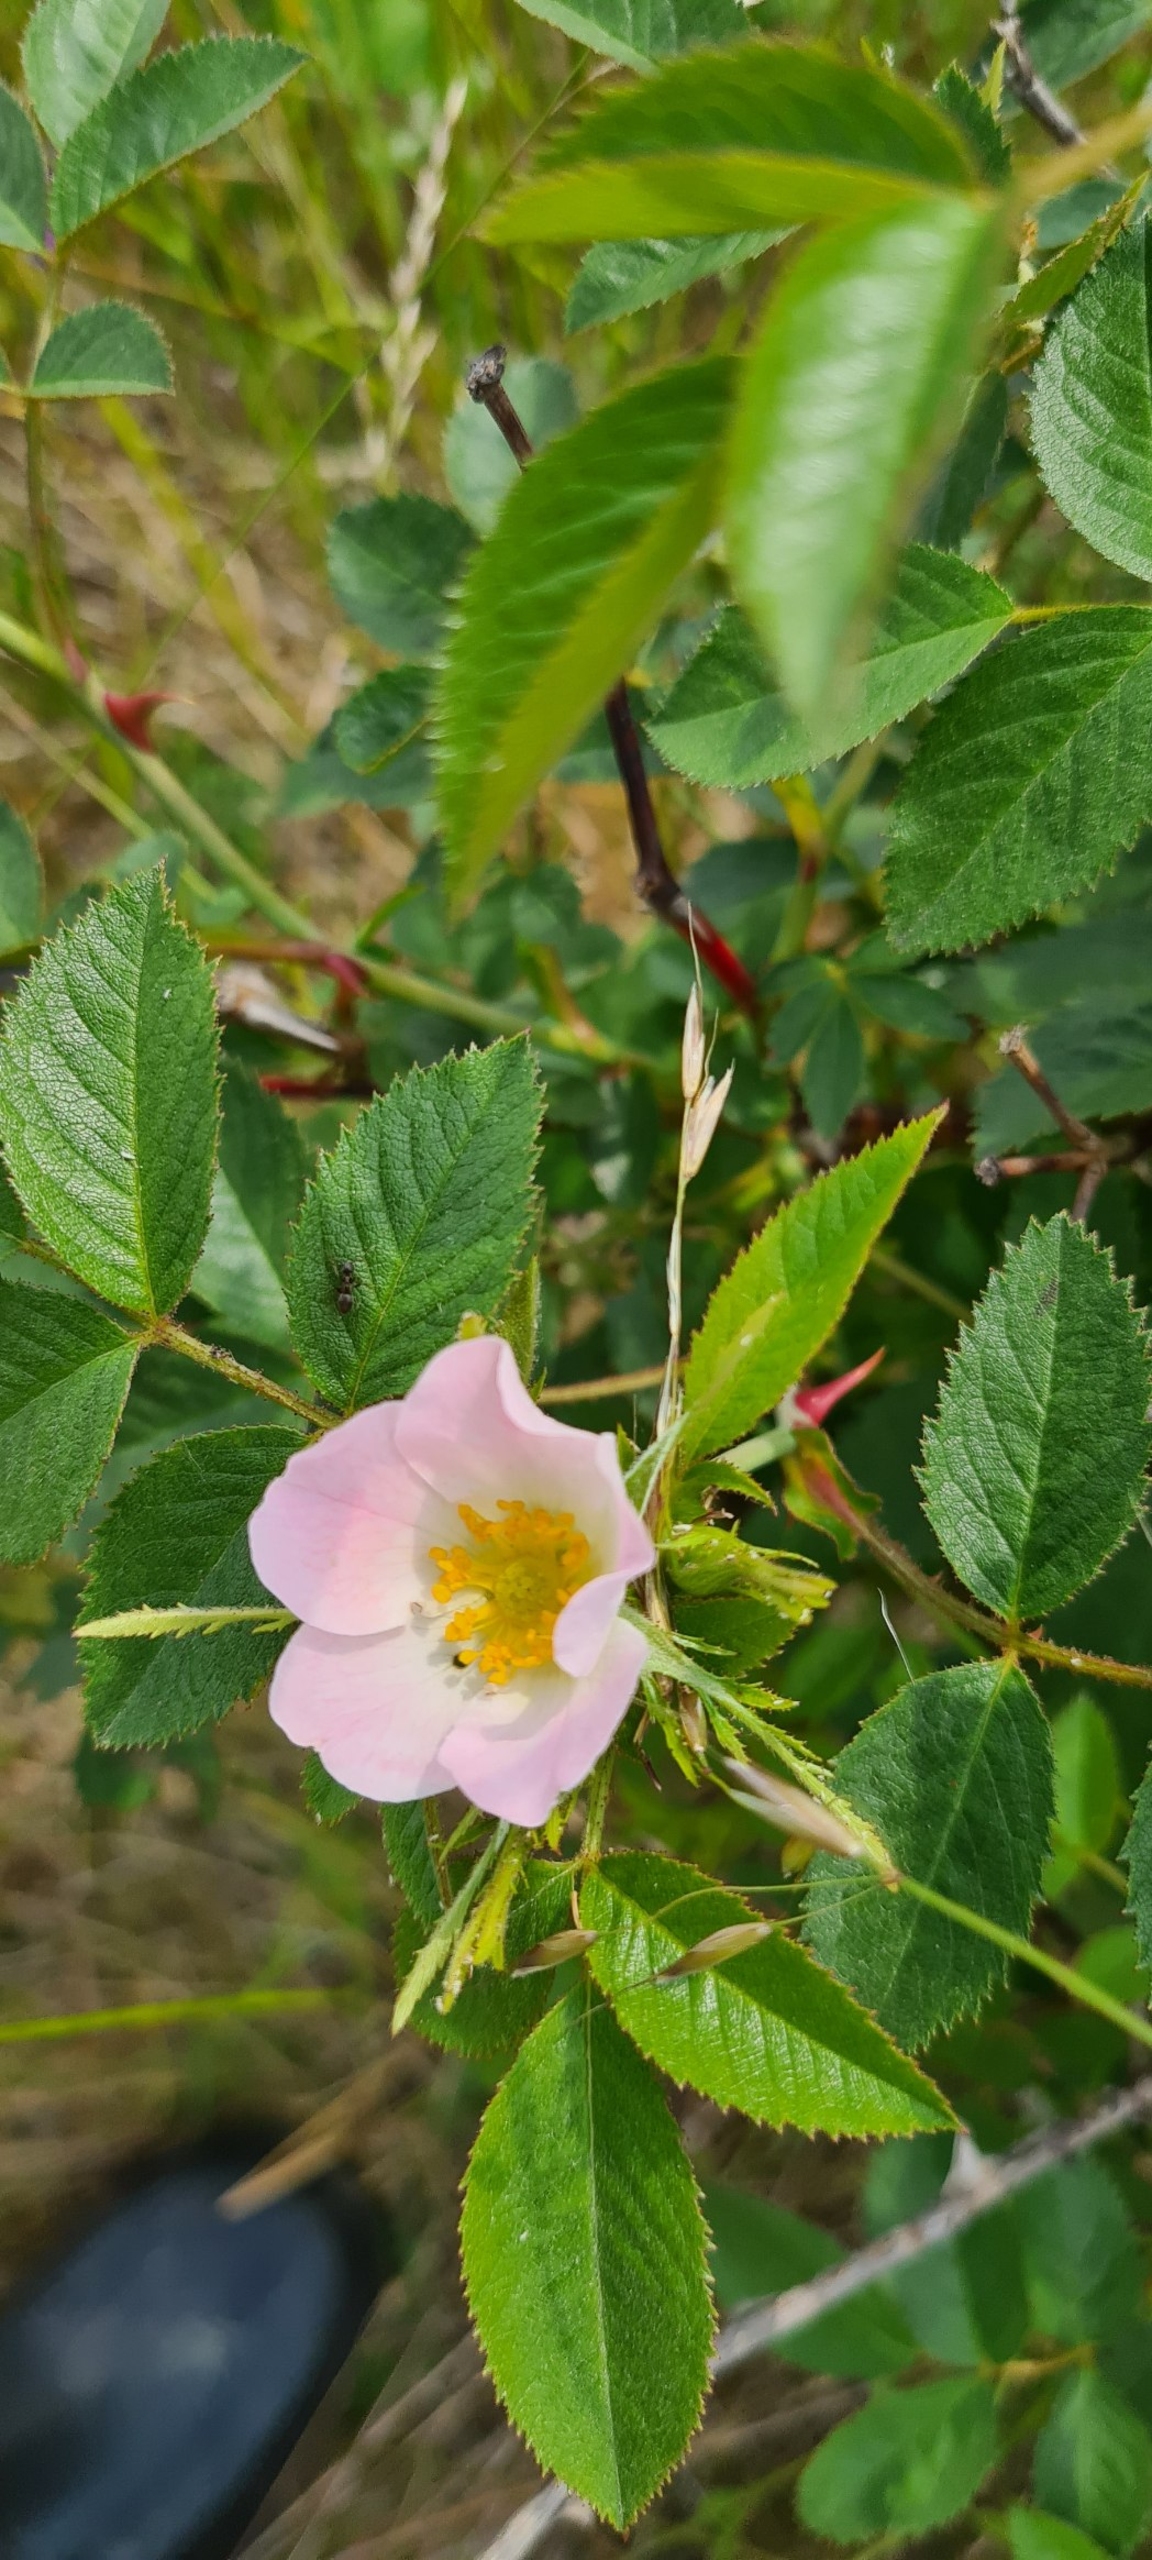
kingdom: Plantae
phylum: Tracheophyta
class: Magnoliopsida
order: Rosales
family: Rosaceae
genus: Rosa
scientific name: Rosa inodora
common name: Lugtløs æble-rose
